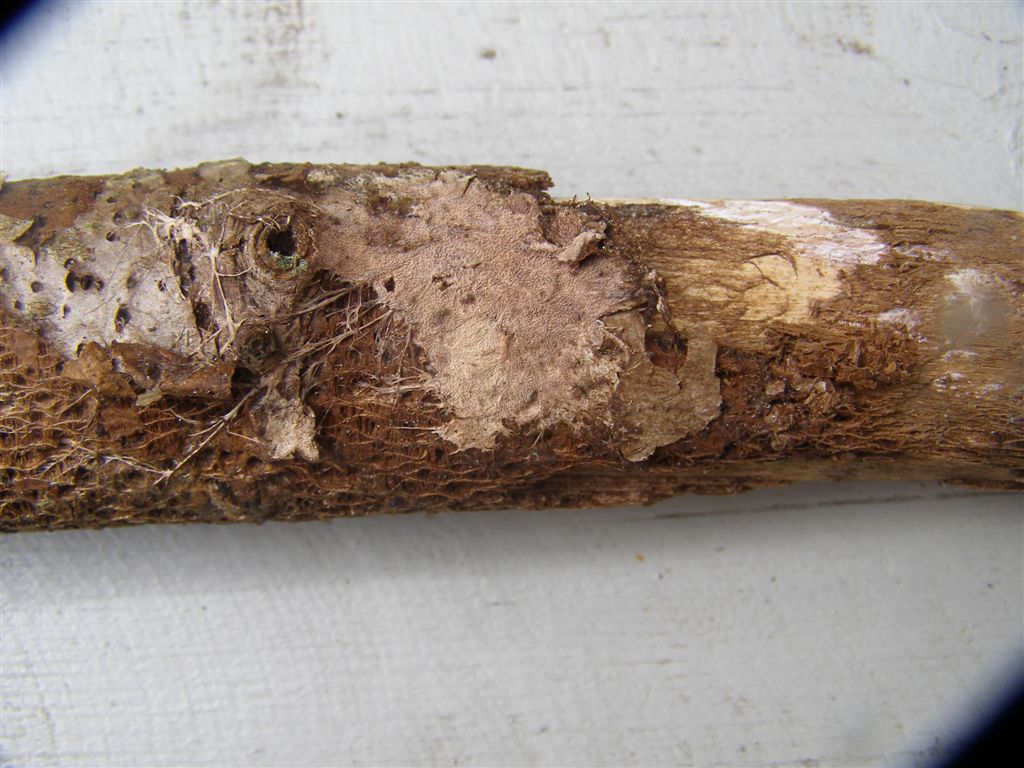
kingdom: Fungi
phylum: Basidiomycota
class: Agaricomycetes
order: Polyporales
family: Phanerochaetaceae
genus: Phanerochaete
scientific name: Phanerochaete velutina
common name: dunet randtråd
